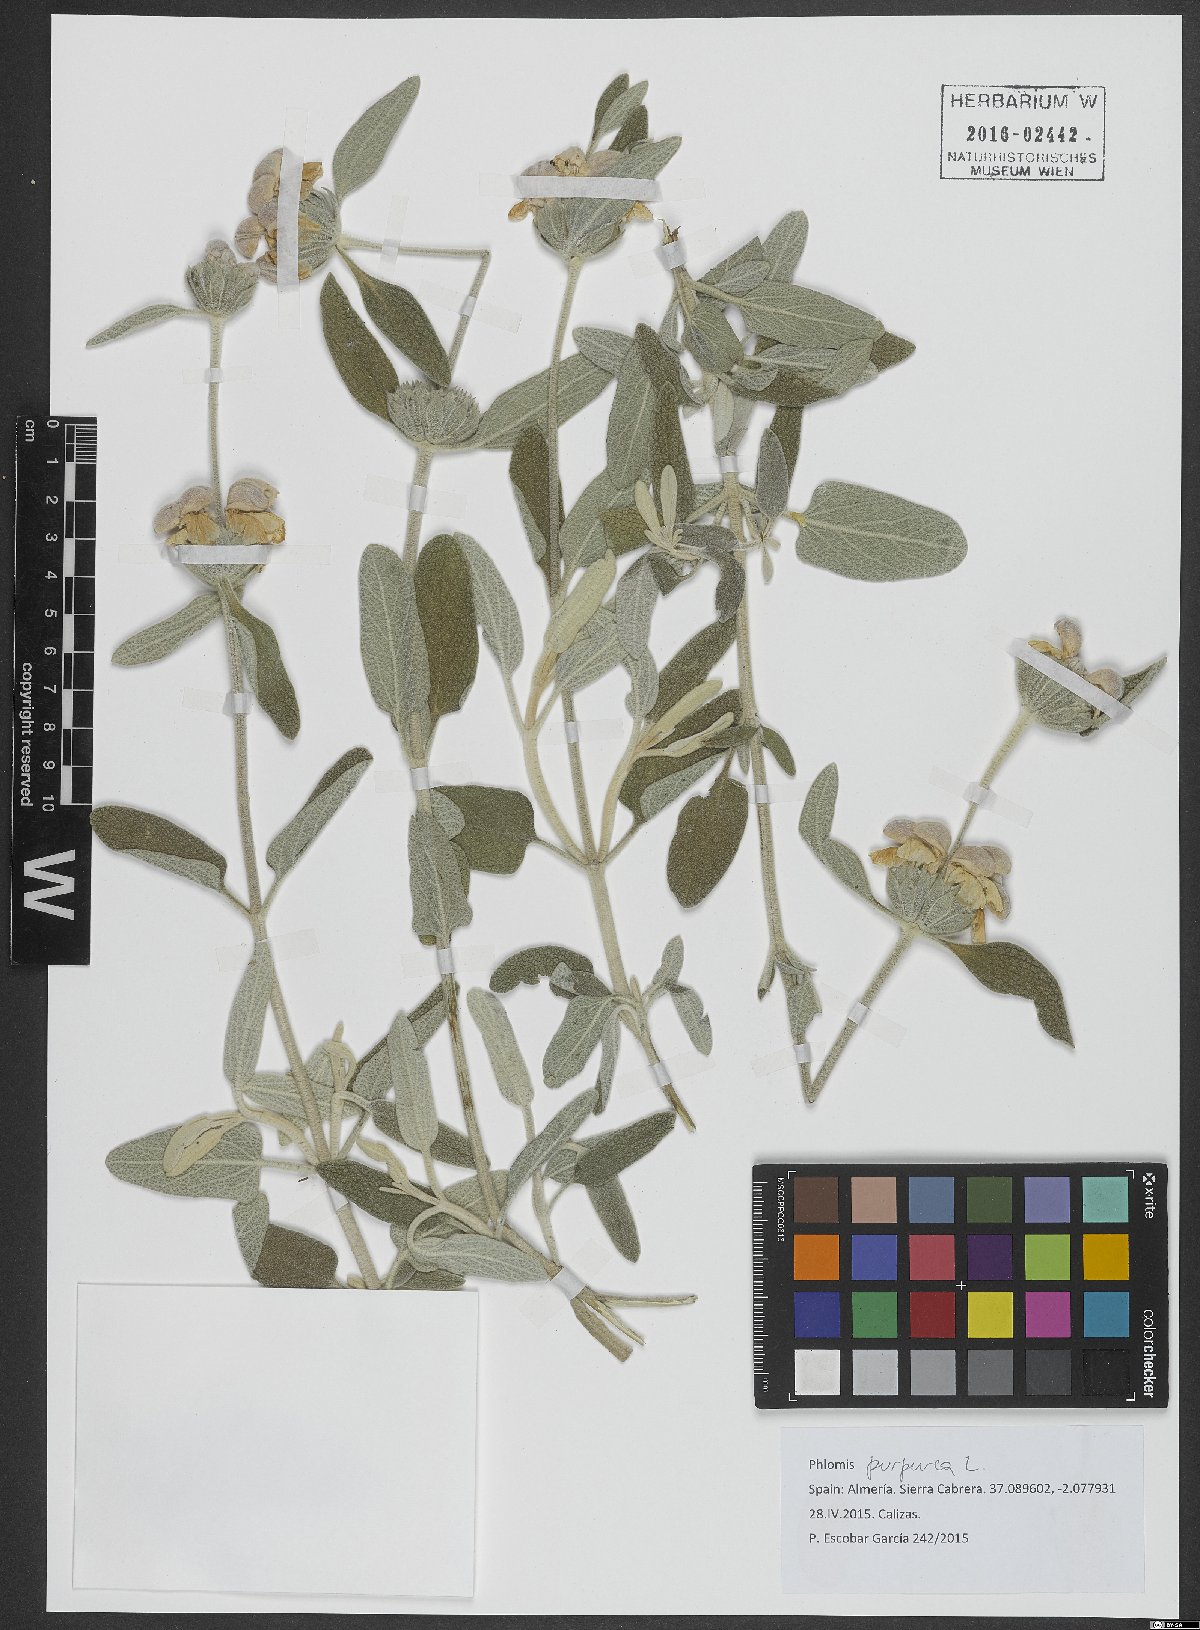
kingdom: Plantae
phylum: Tracheophyta
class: Magnoliopsida
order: Lamiales
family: Lamiaceae
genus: Phlomis
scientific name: Phlomis purpurea
